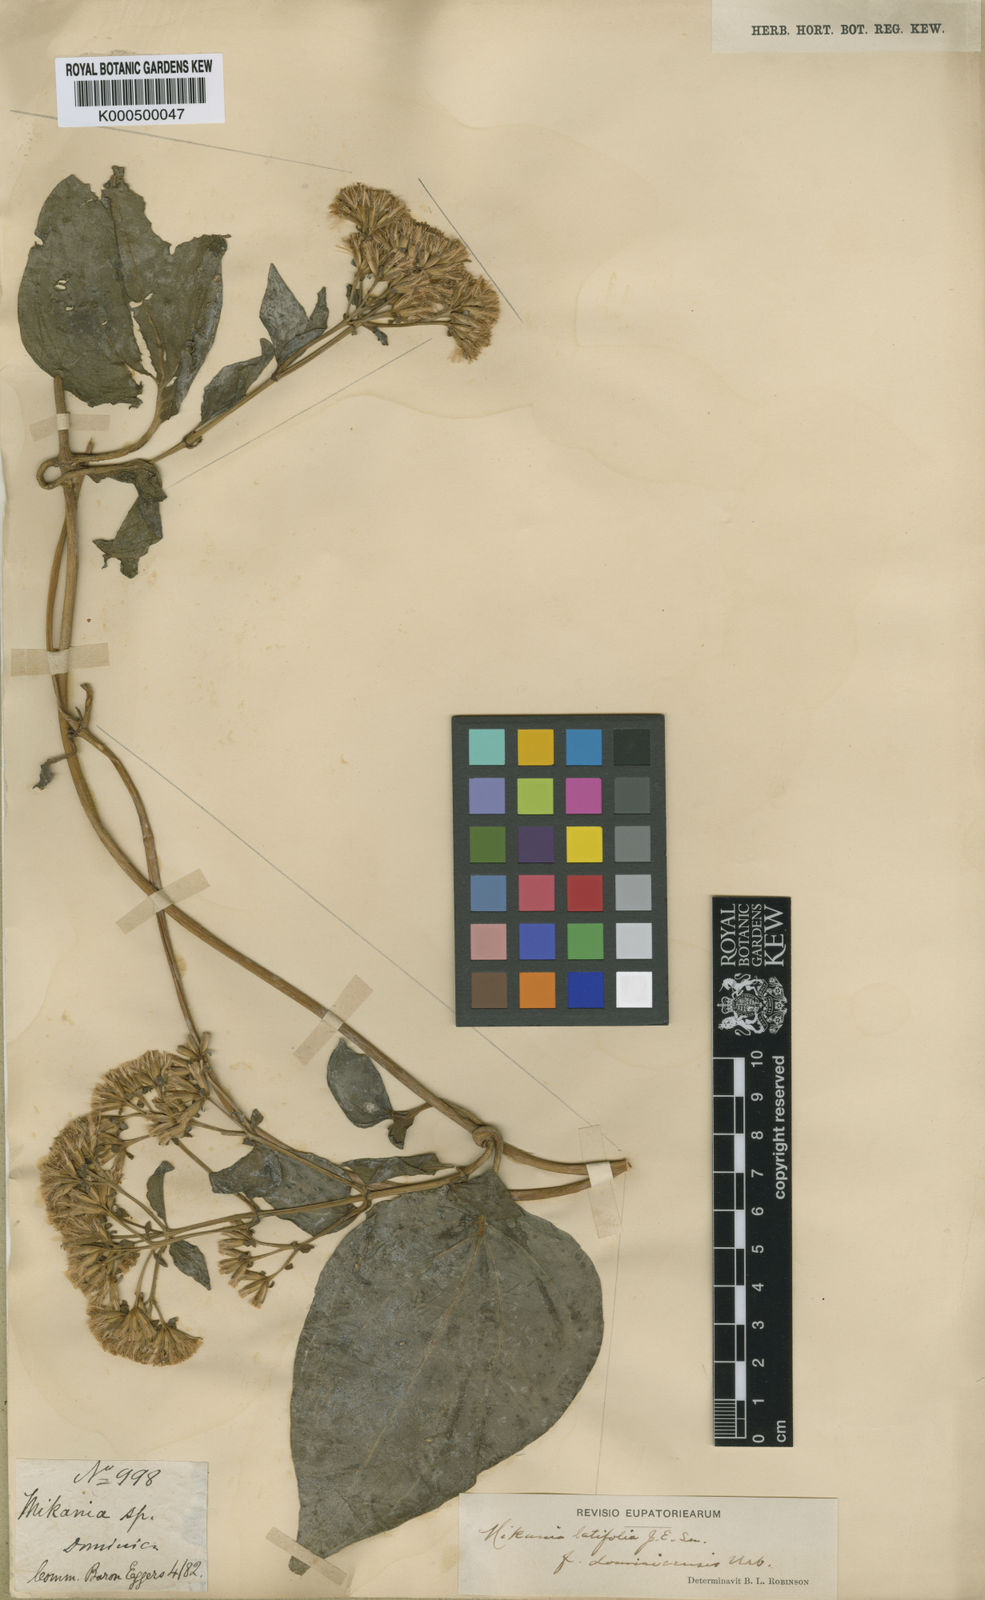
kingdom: Plantae
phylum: Tracheophyta
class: Magnoliopsida
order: Asterales
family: Asteraceae
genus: Mikania
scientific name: Mikania latifolia
